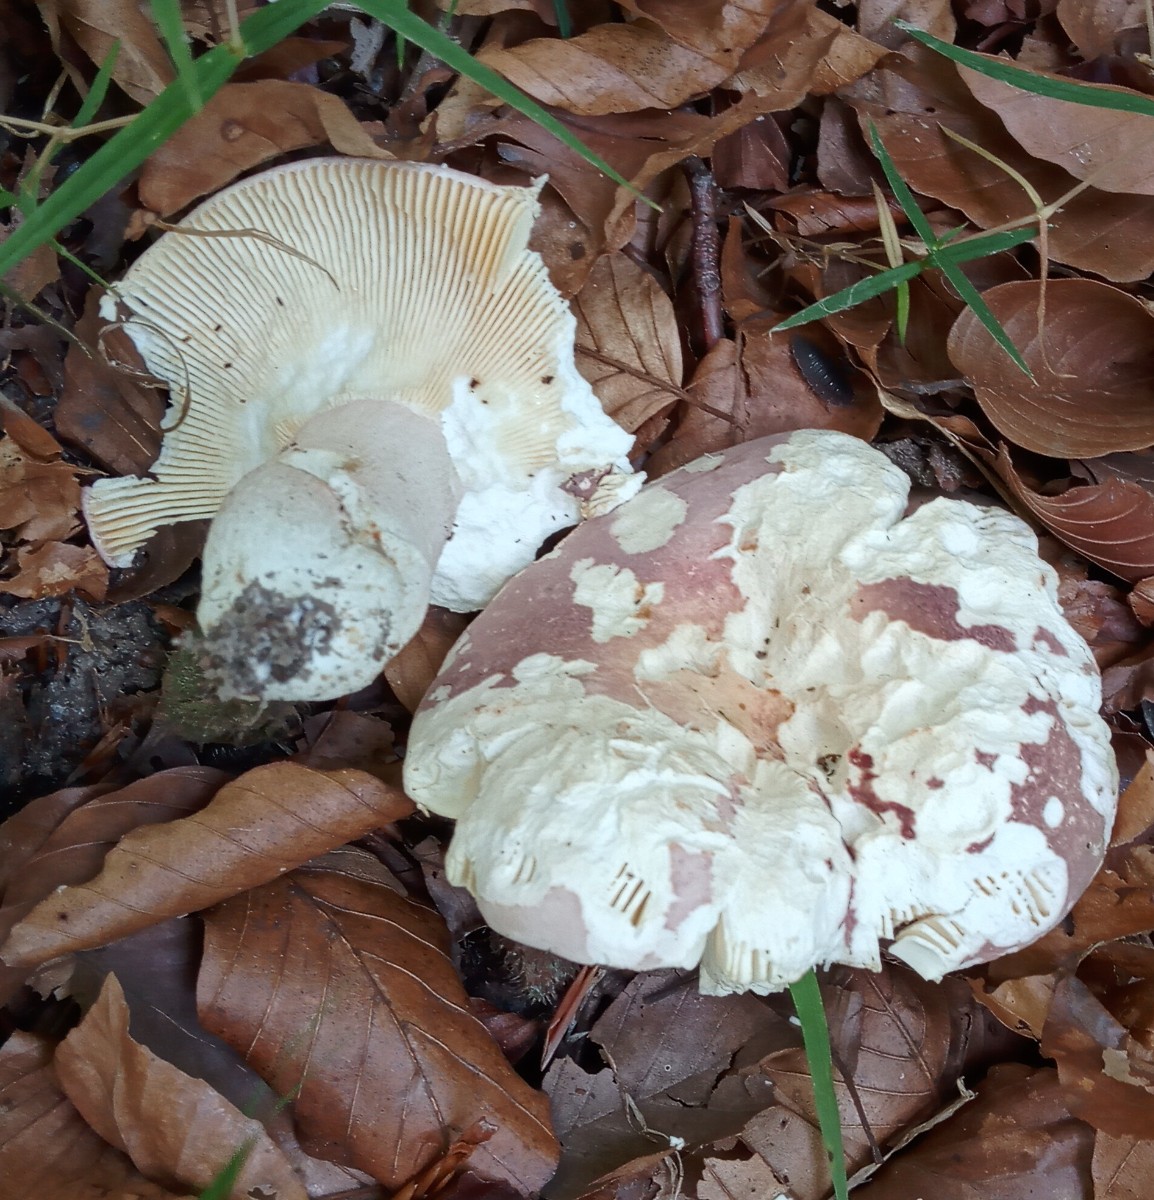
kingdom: Fungi
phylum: Basidiomycota
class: Agaricomycetes
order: Russulales
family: Russulaceae
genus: Russula
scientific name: Russula olivacea
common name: stor skørhat
